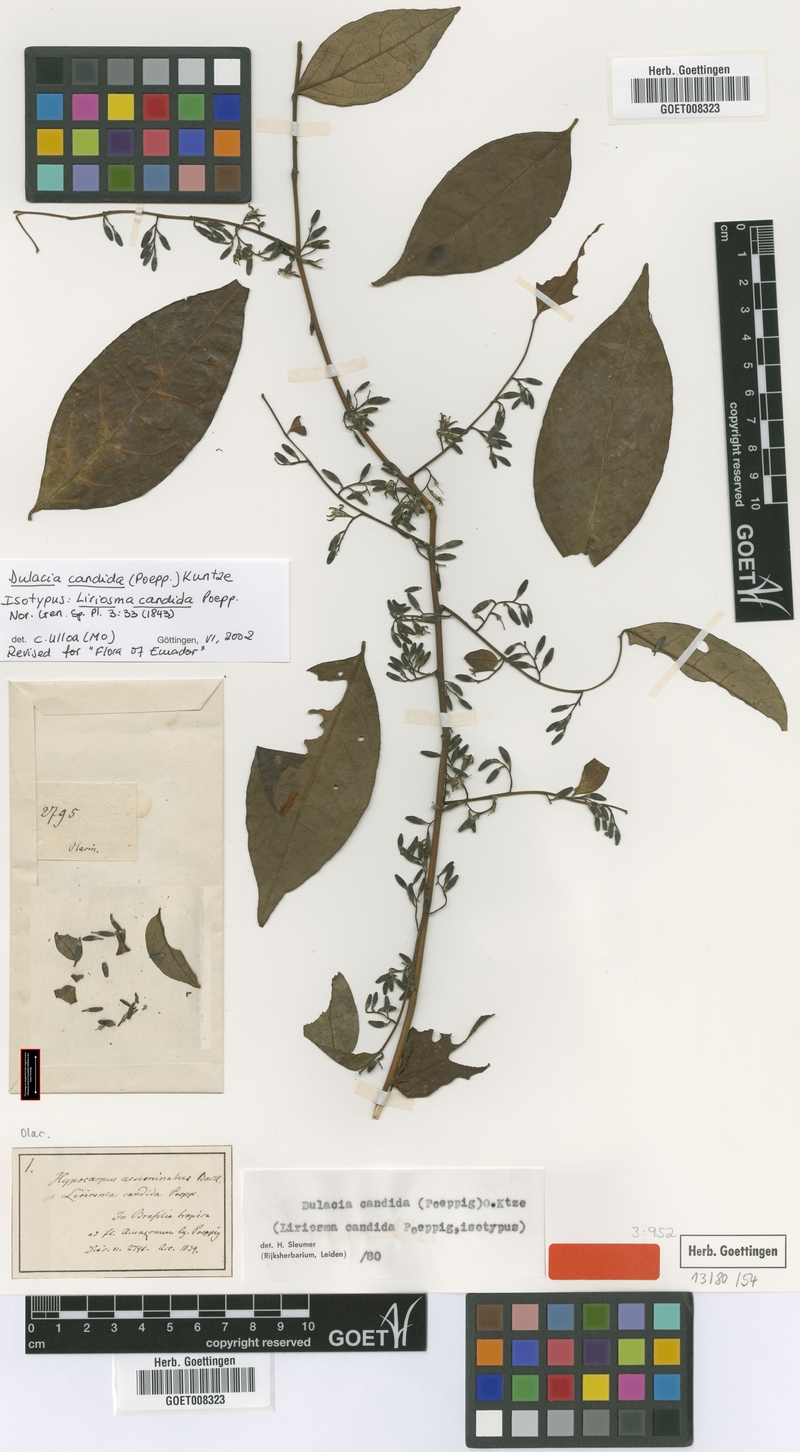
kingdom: Plantae
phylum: Tracheophyta
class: Magnoliopsida
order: Santalales
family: Olacaceae
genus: Dulacia
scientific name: Dulacia candida
